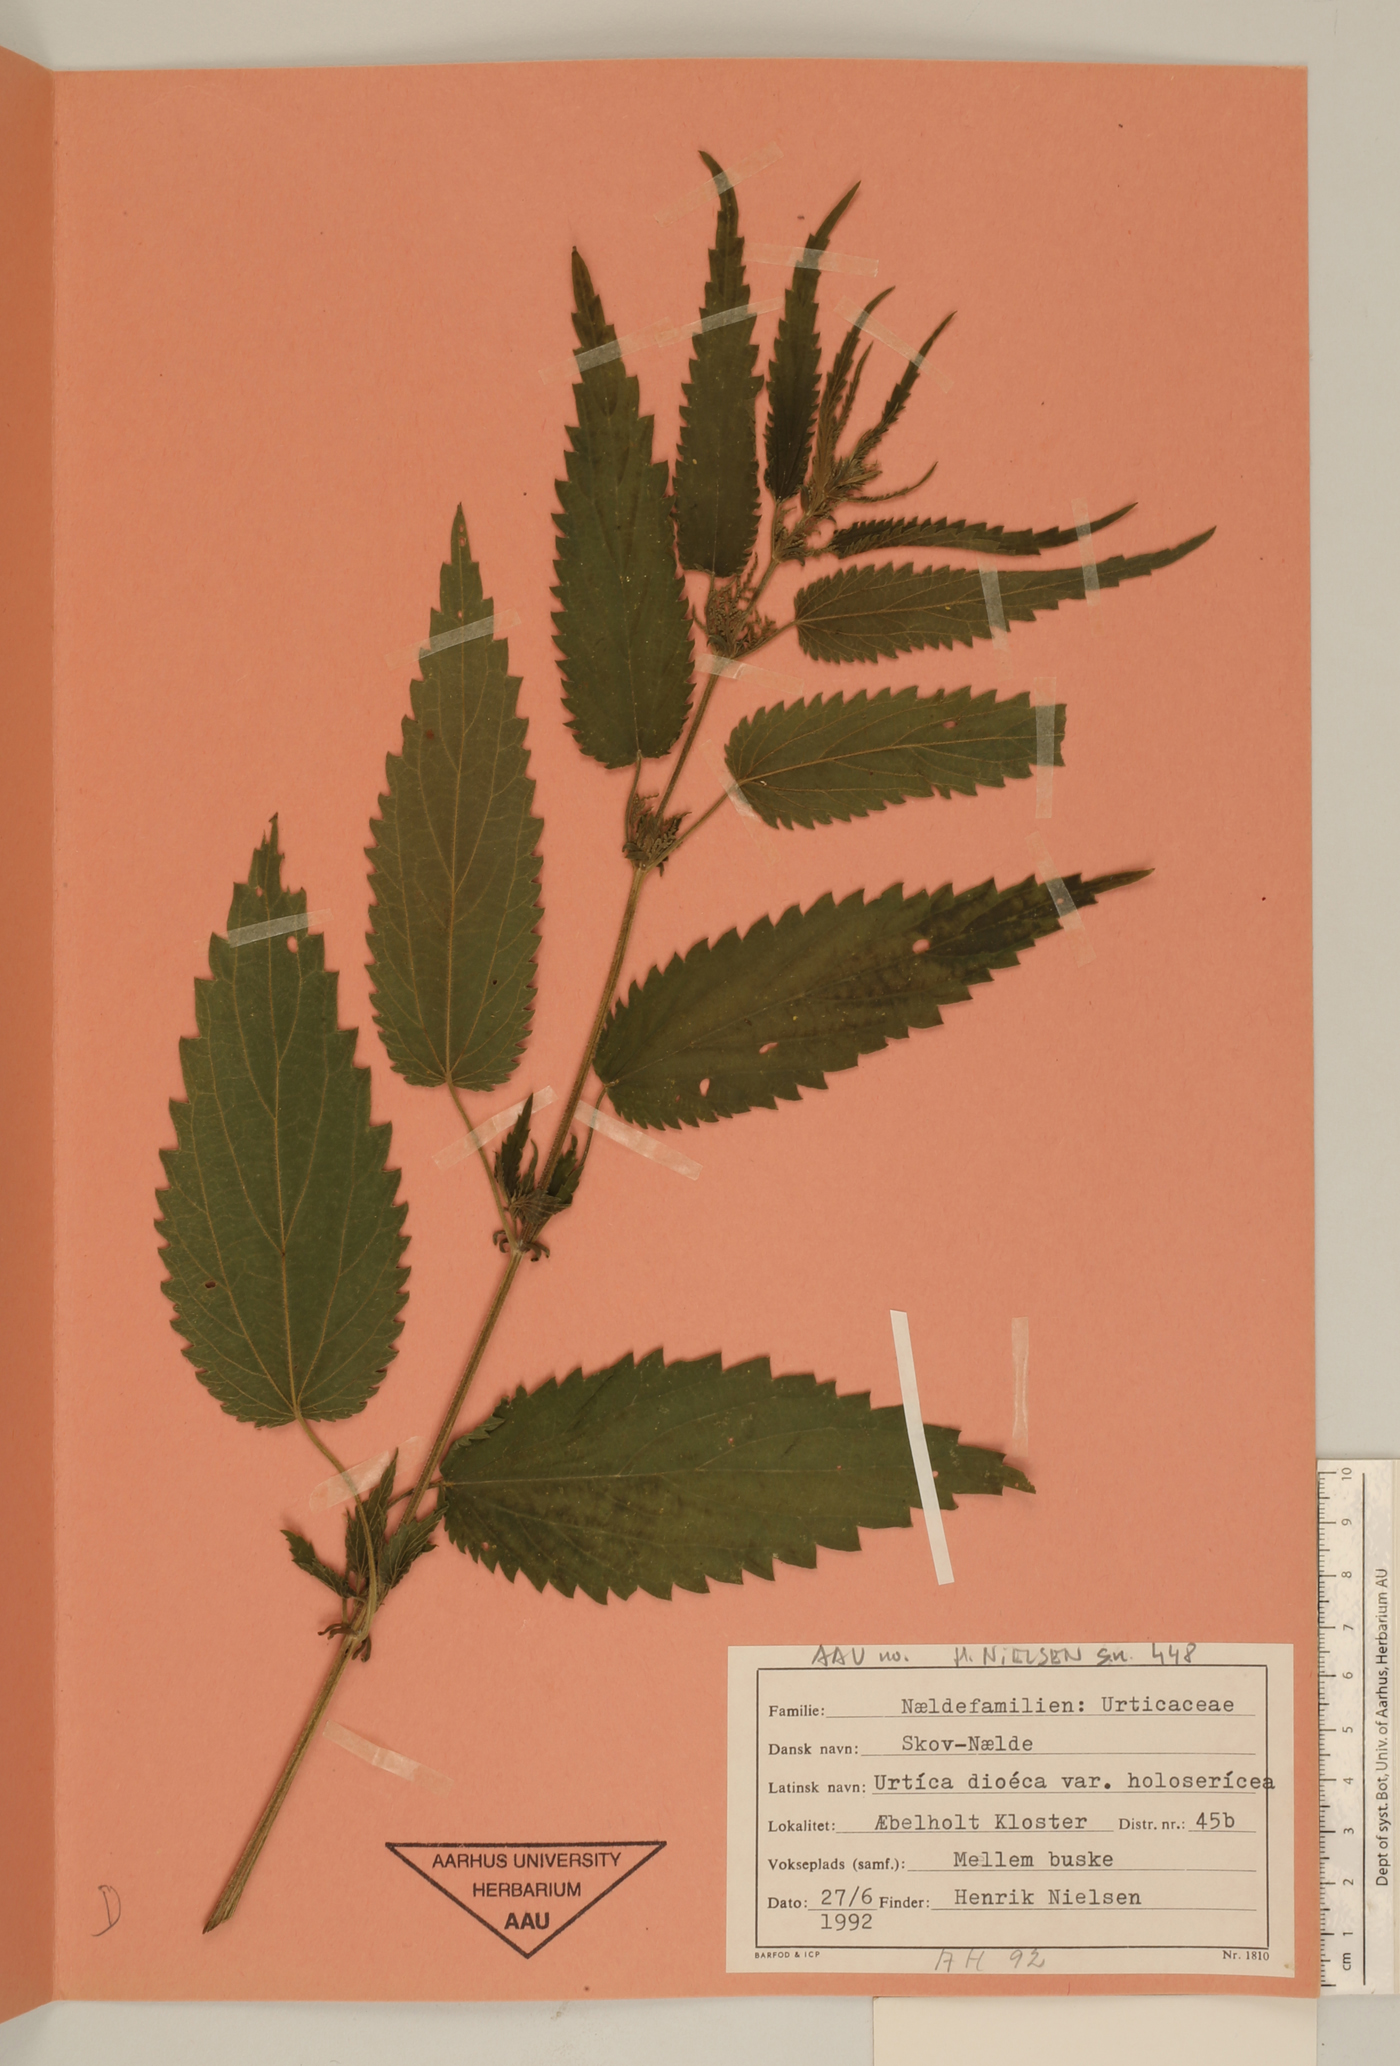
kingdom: Plantae
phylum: Tracheophyta
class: Magnoliopsida
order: Rosales
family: Urticaceae
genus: Urtica
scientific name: Urtica gracilis
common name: Slender stinging nettle
